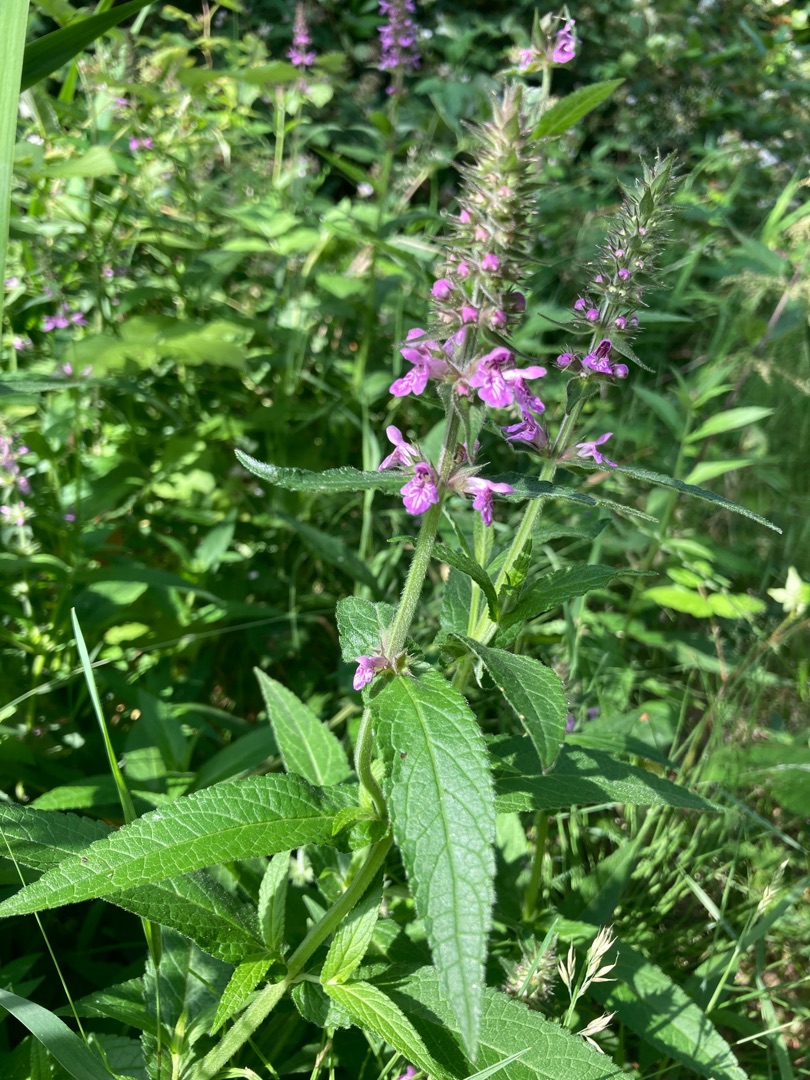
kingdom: Plantae
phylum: Tracheophyta
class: Magnoliopsida
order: Lamiales
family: Lamiaceae
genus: Stachys
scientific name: Stachys palustris
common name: Kær-galtetand
